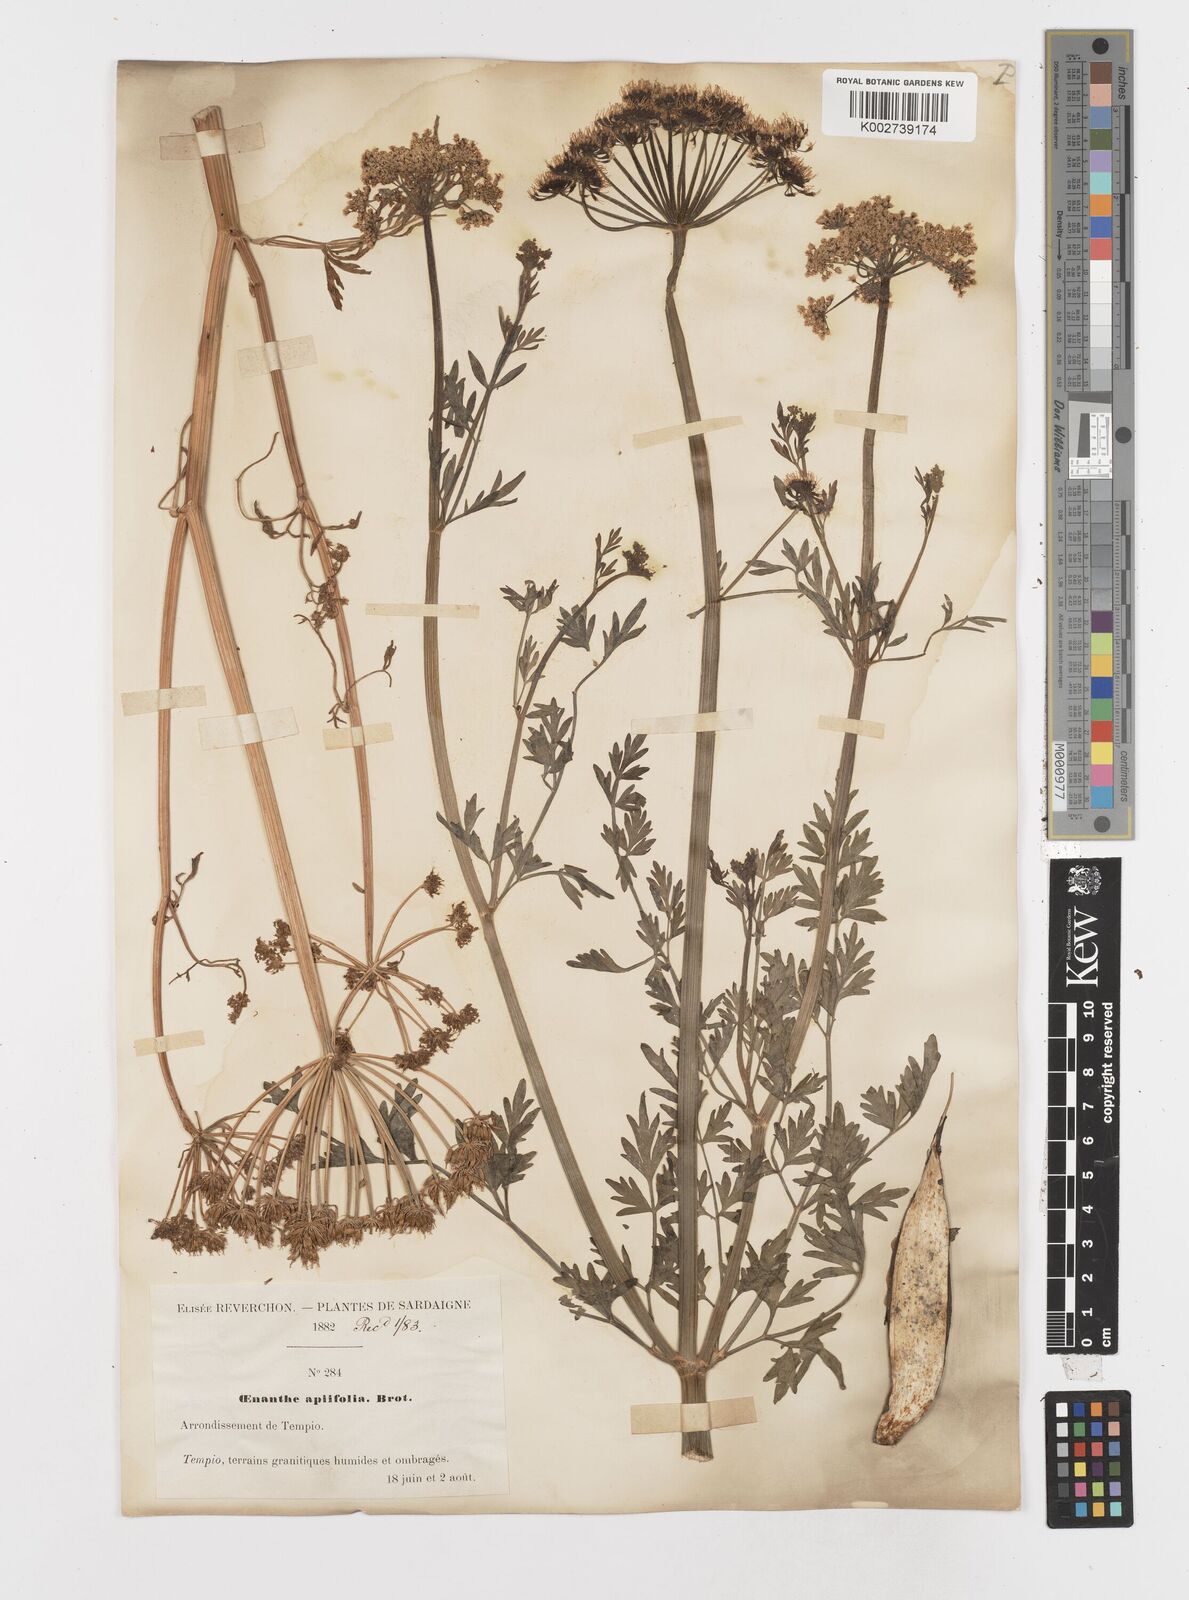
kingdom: Plantae
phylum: Tracheophyta
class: Magnoliopsida
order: Apiales
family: Apiaceae
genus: Oenanthe
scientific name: Oenanthe crocata
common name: Hemlock water-dropwort
